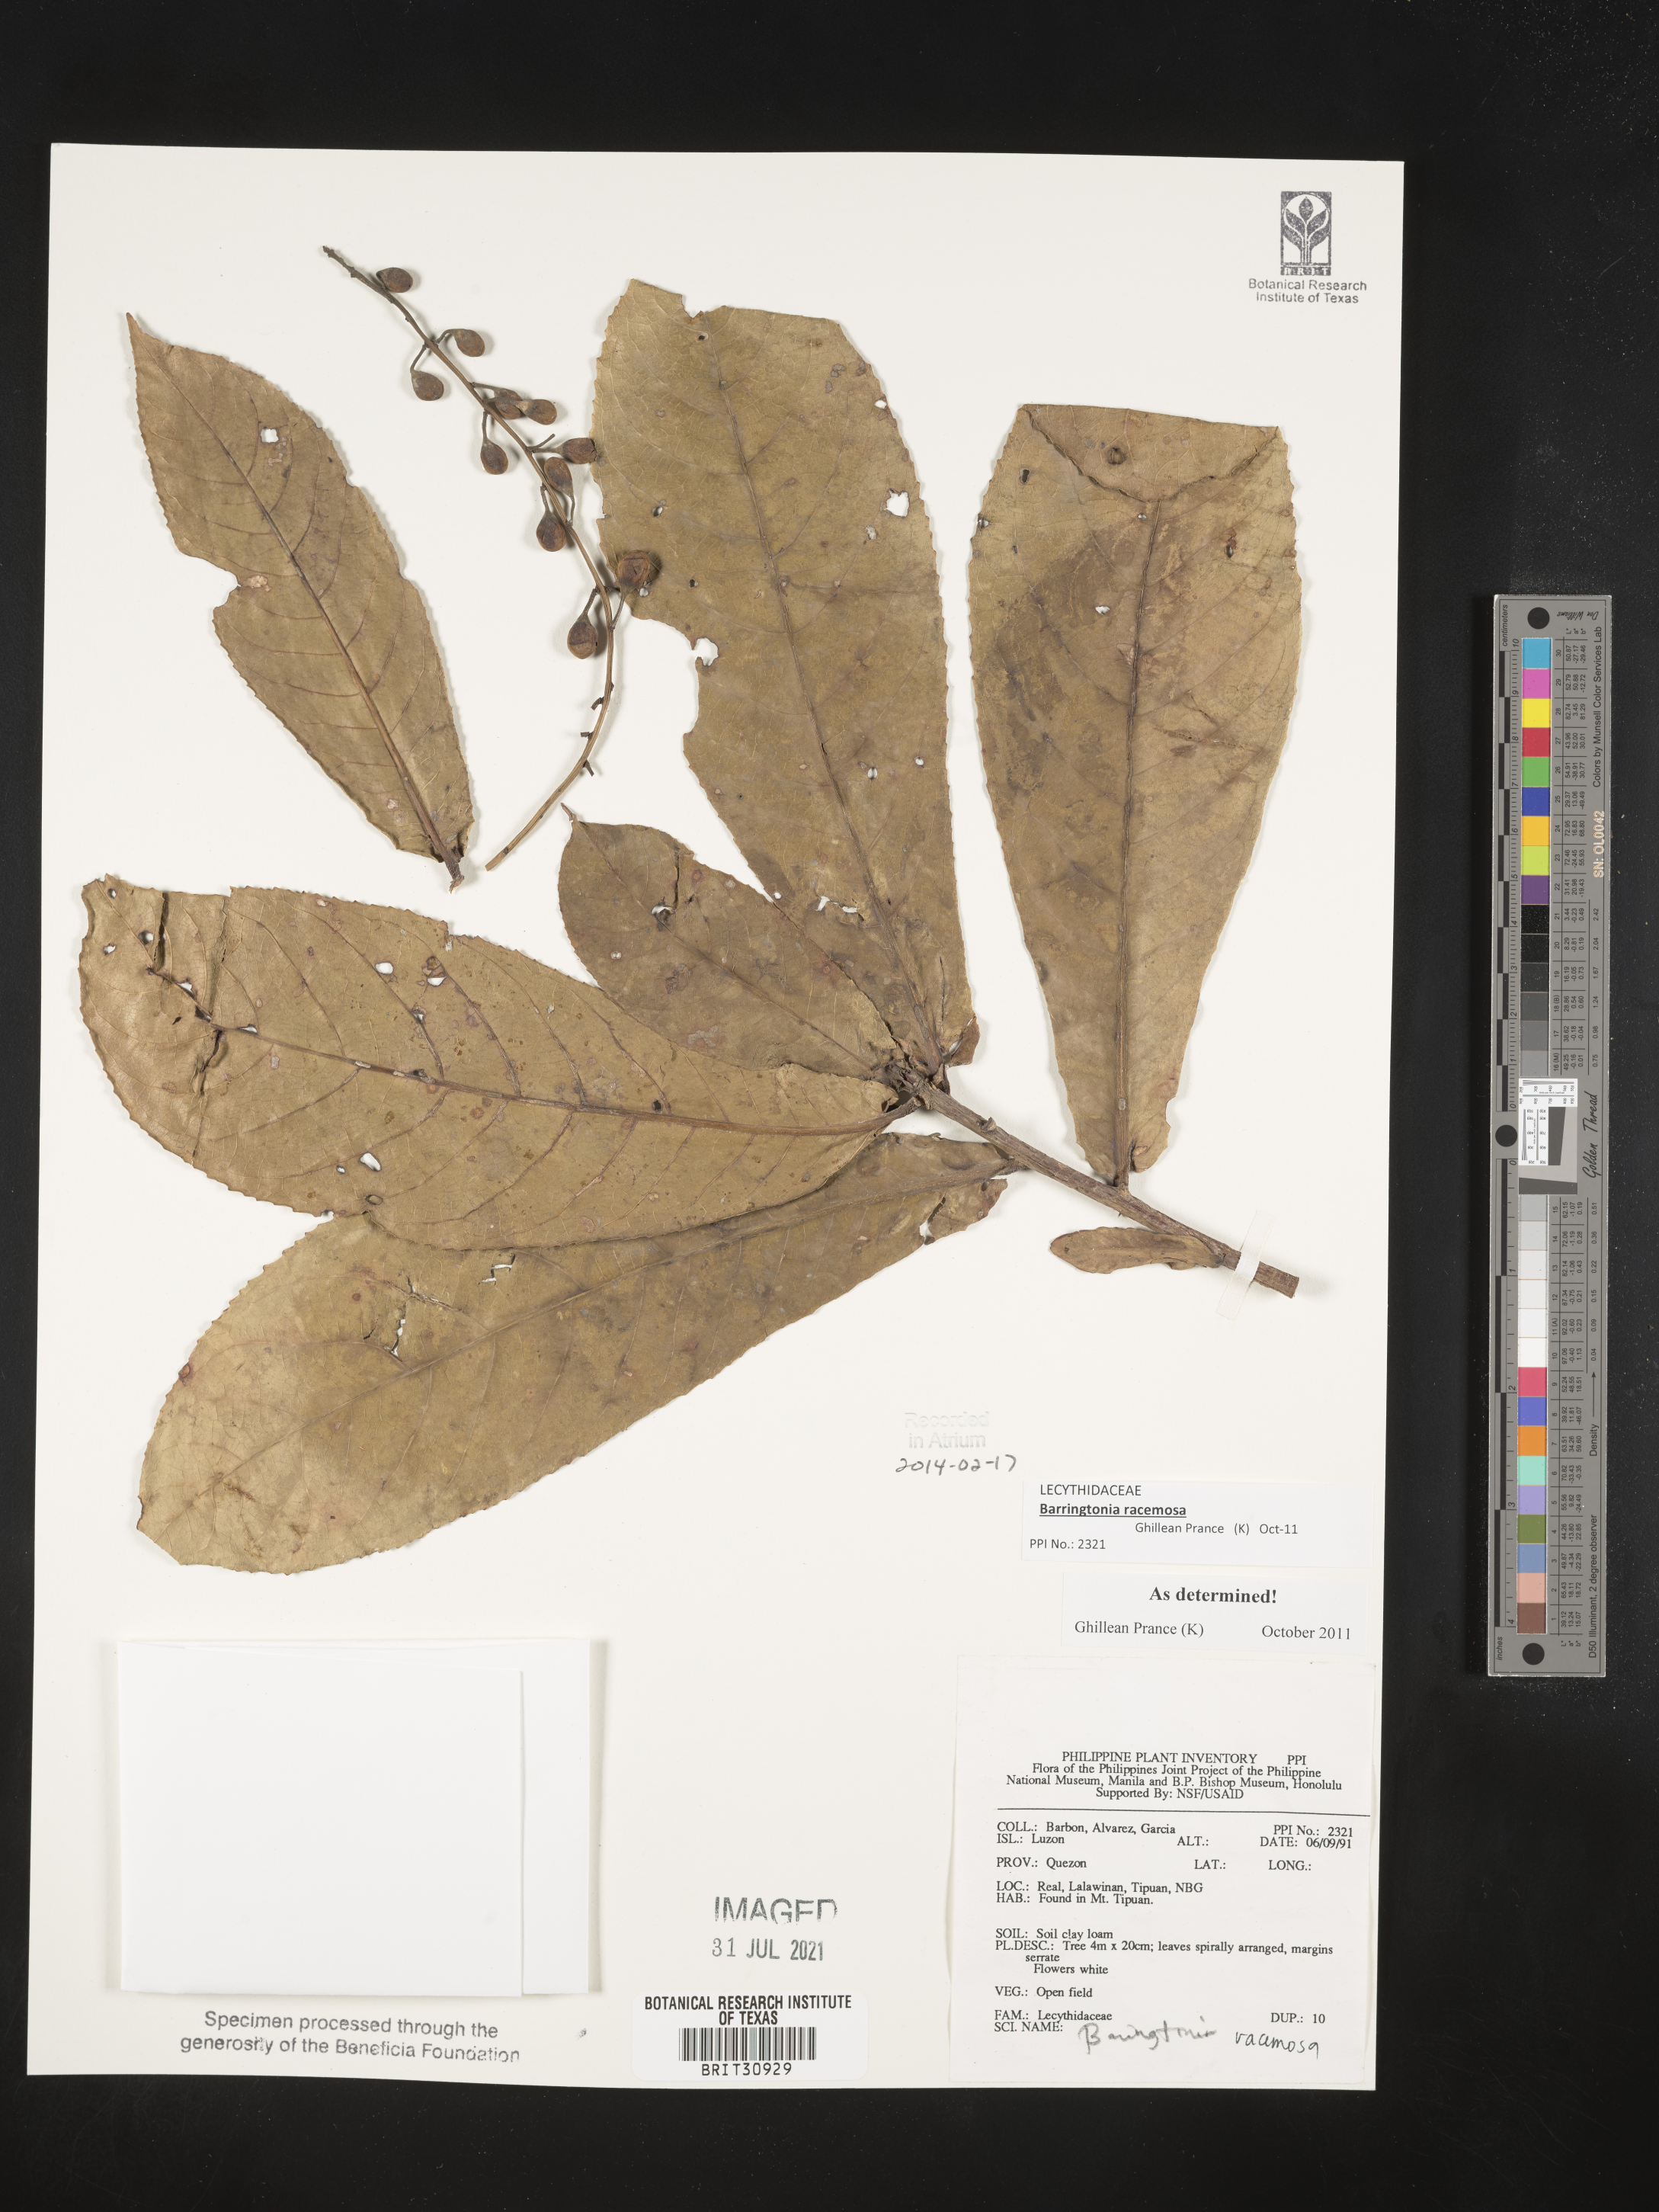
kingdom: Plantae
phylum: Tracheophyta
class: Magnoliopsida
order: Ericales
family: Lecythidaceae
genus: Barringtonia
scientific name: Barringtonia racemosa
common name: Brackwater mangrove
